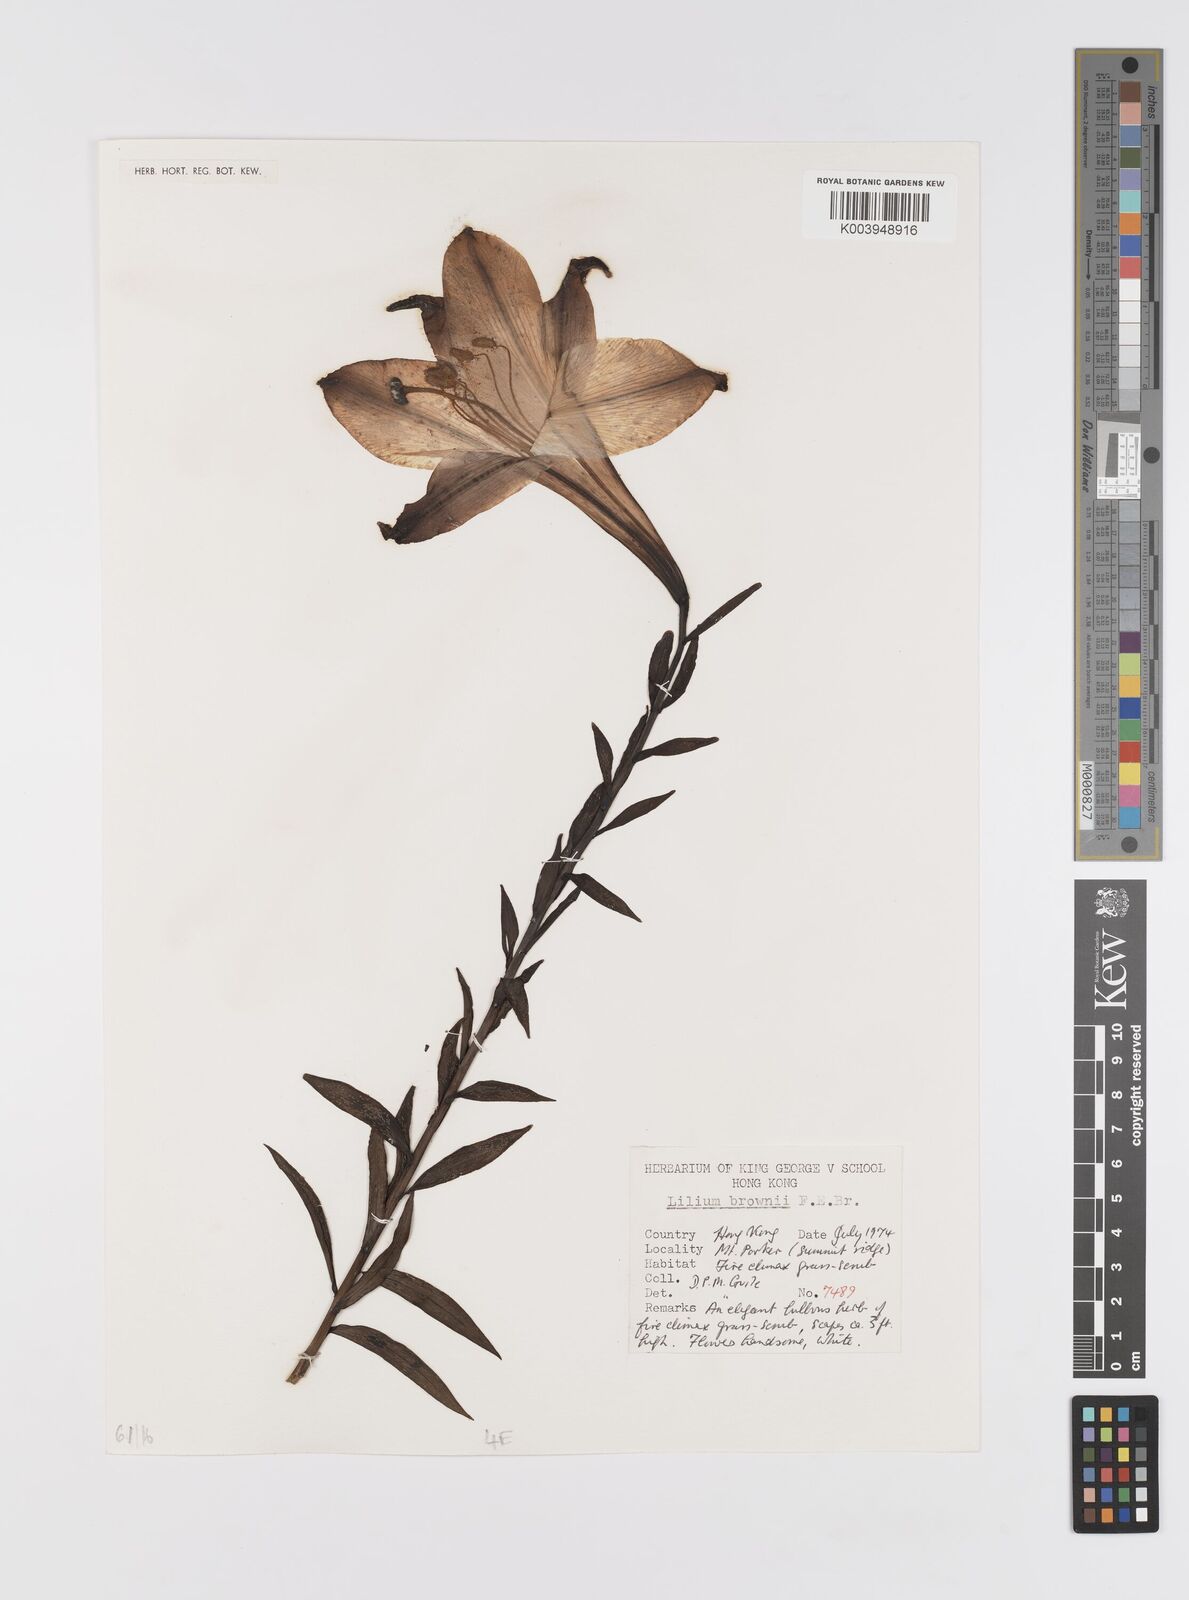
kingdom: Plantae
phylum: Tracheophyta
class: Liliopsida
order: Liliales
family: Liliaceae
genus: Lilium
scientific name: Lilium japonicum
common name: Japanese lily
